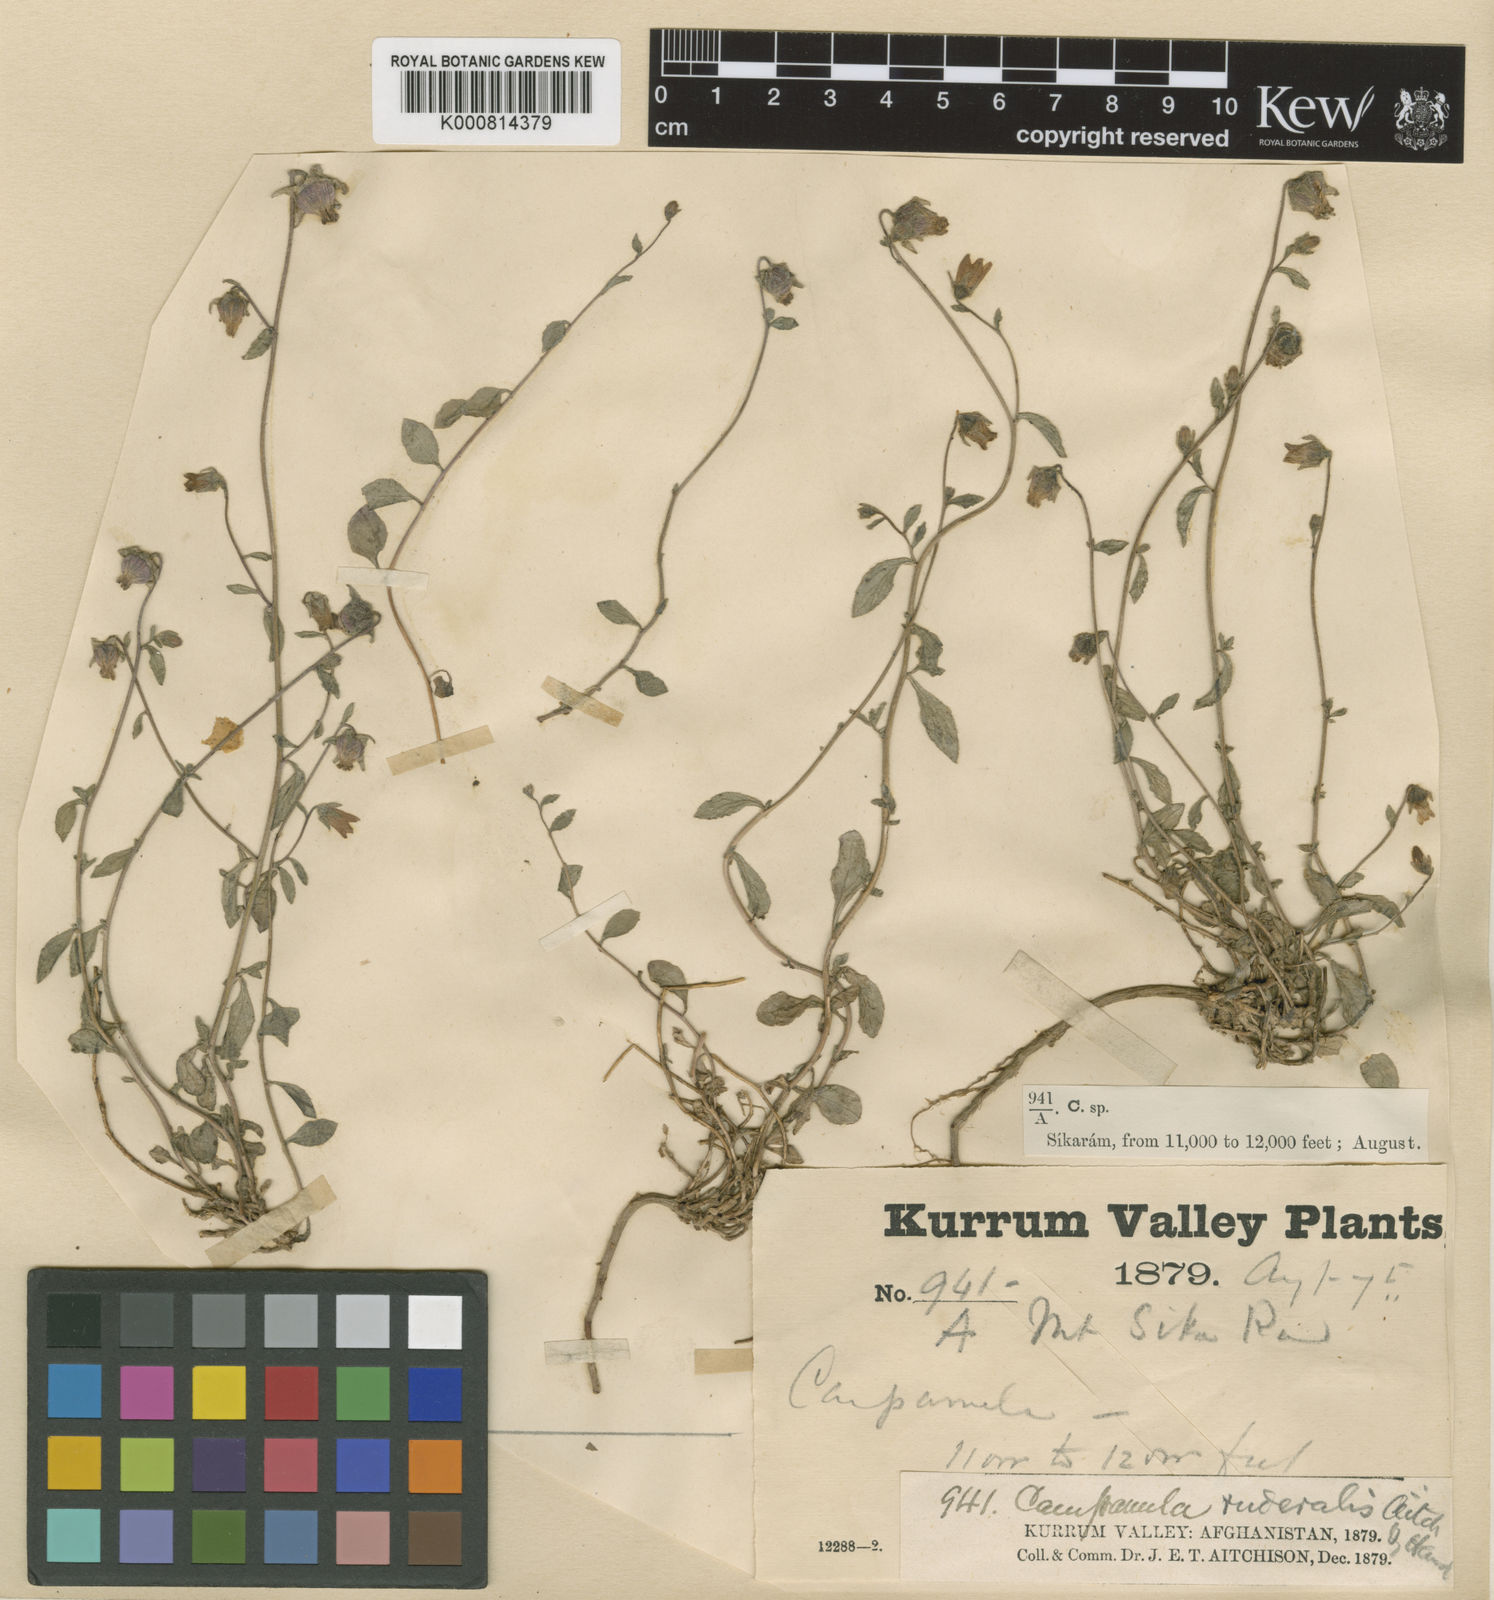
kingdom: Plantae
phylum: Tracheophyta
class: Magnoliopsida
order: Asterales
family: Campanulaceae
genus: Campanula
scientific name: Campanula cashmeriana
